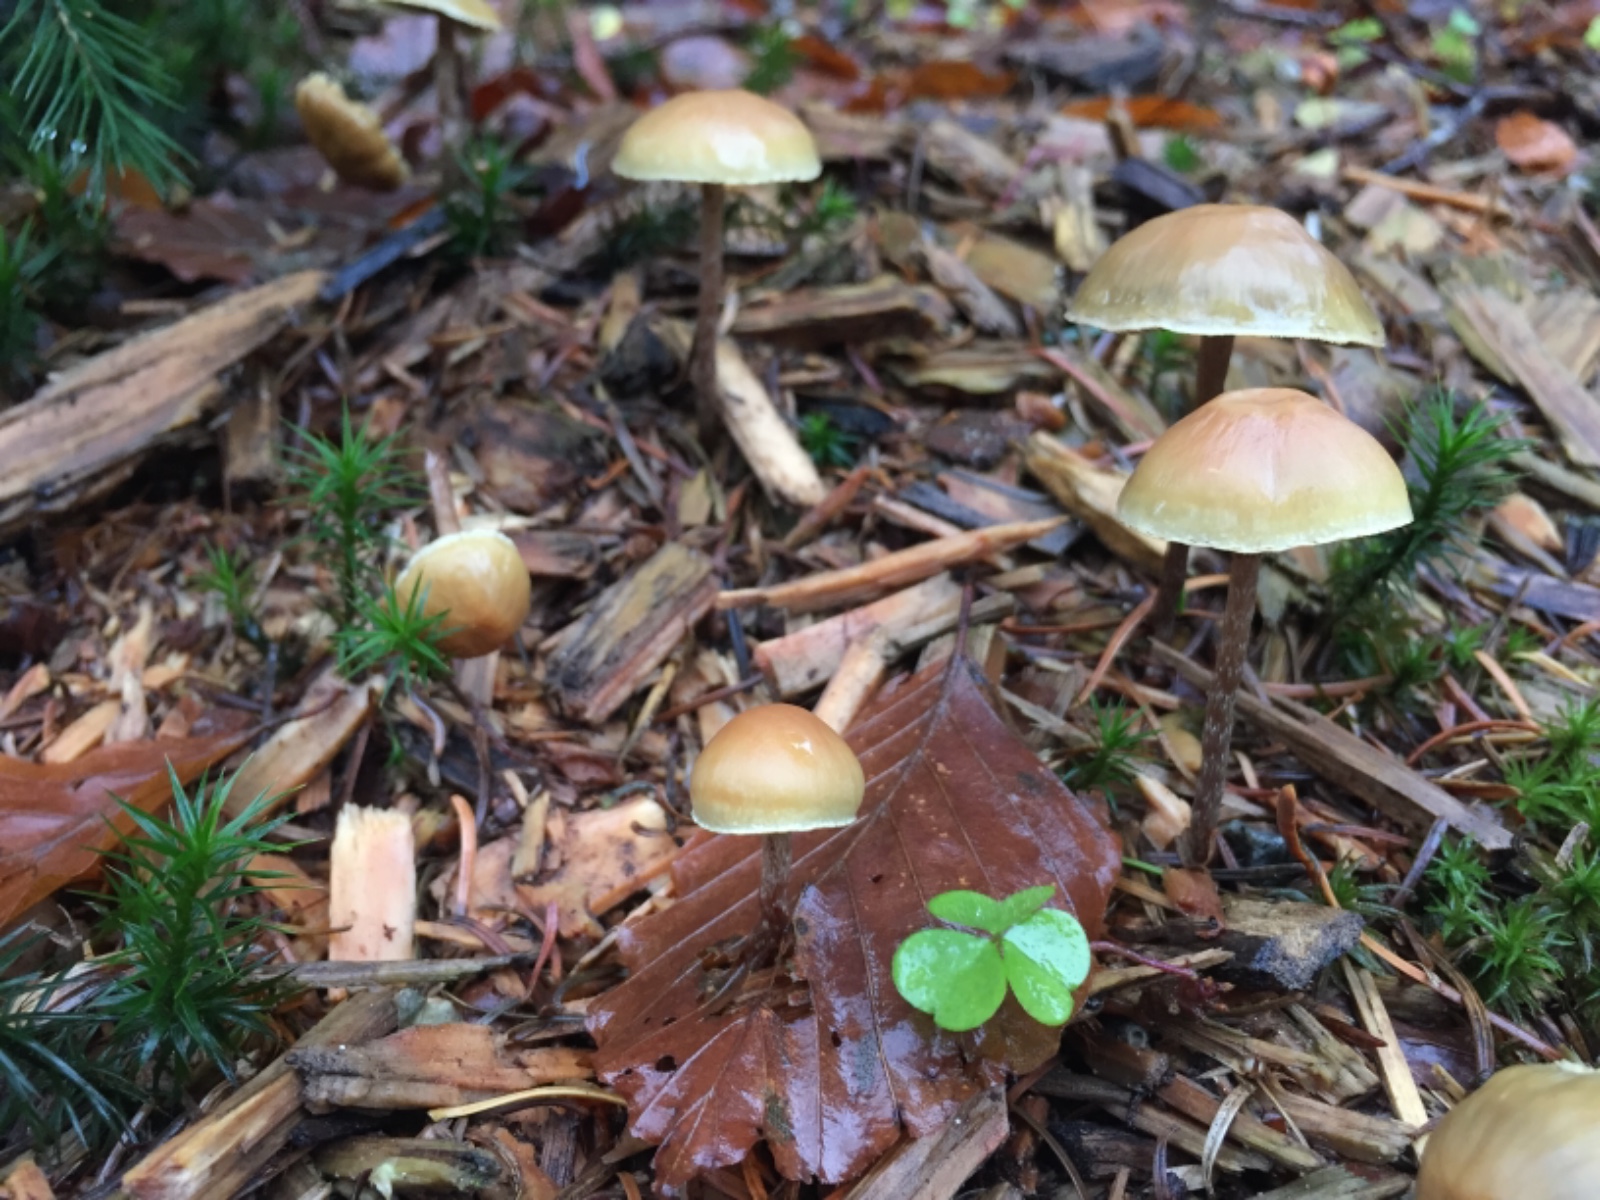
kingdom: Fungi
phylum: Basidiomycota
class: Agaricomycetes
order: Agaricales
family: Strophariaceae
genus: Hypholoma
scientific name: Hypholoma marginatum
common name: enlig svovlhat
